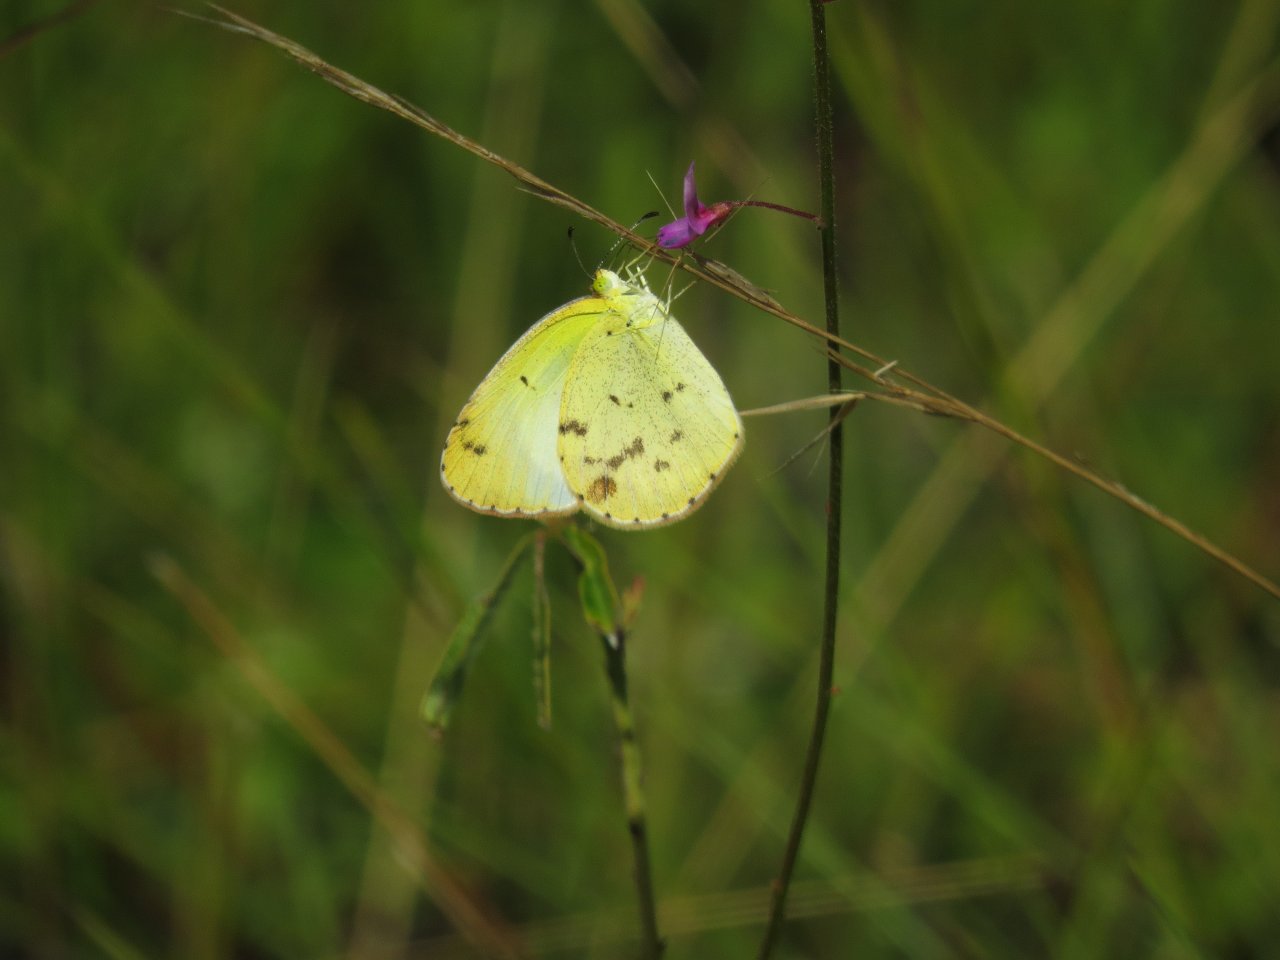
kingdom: Animalia
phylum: Arthropoda
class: Insecta
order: Lepidoptera
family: Pieridae
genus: Pyrisitia
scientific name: Pyrisitia lisa
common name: Little Yellow
